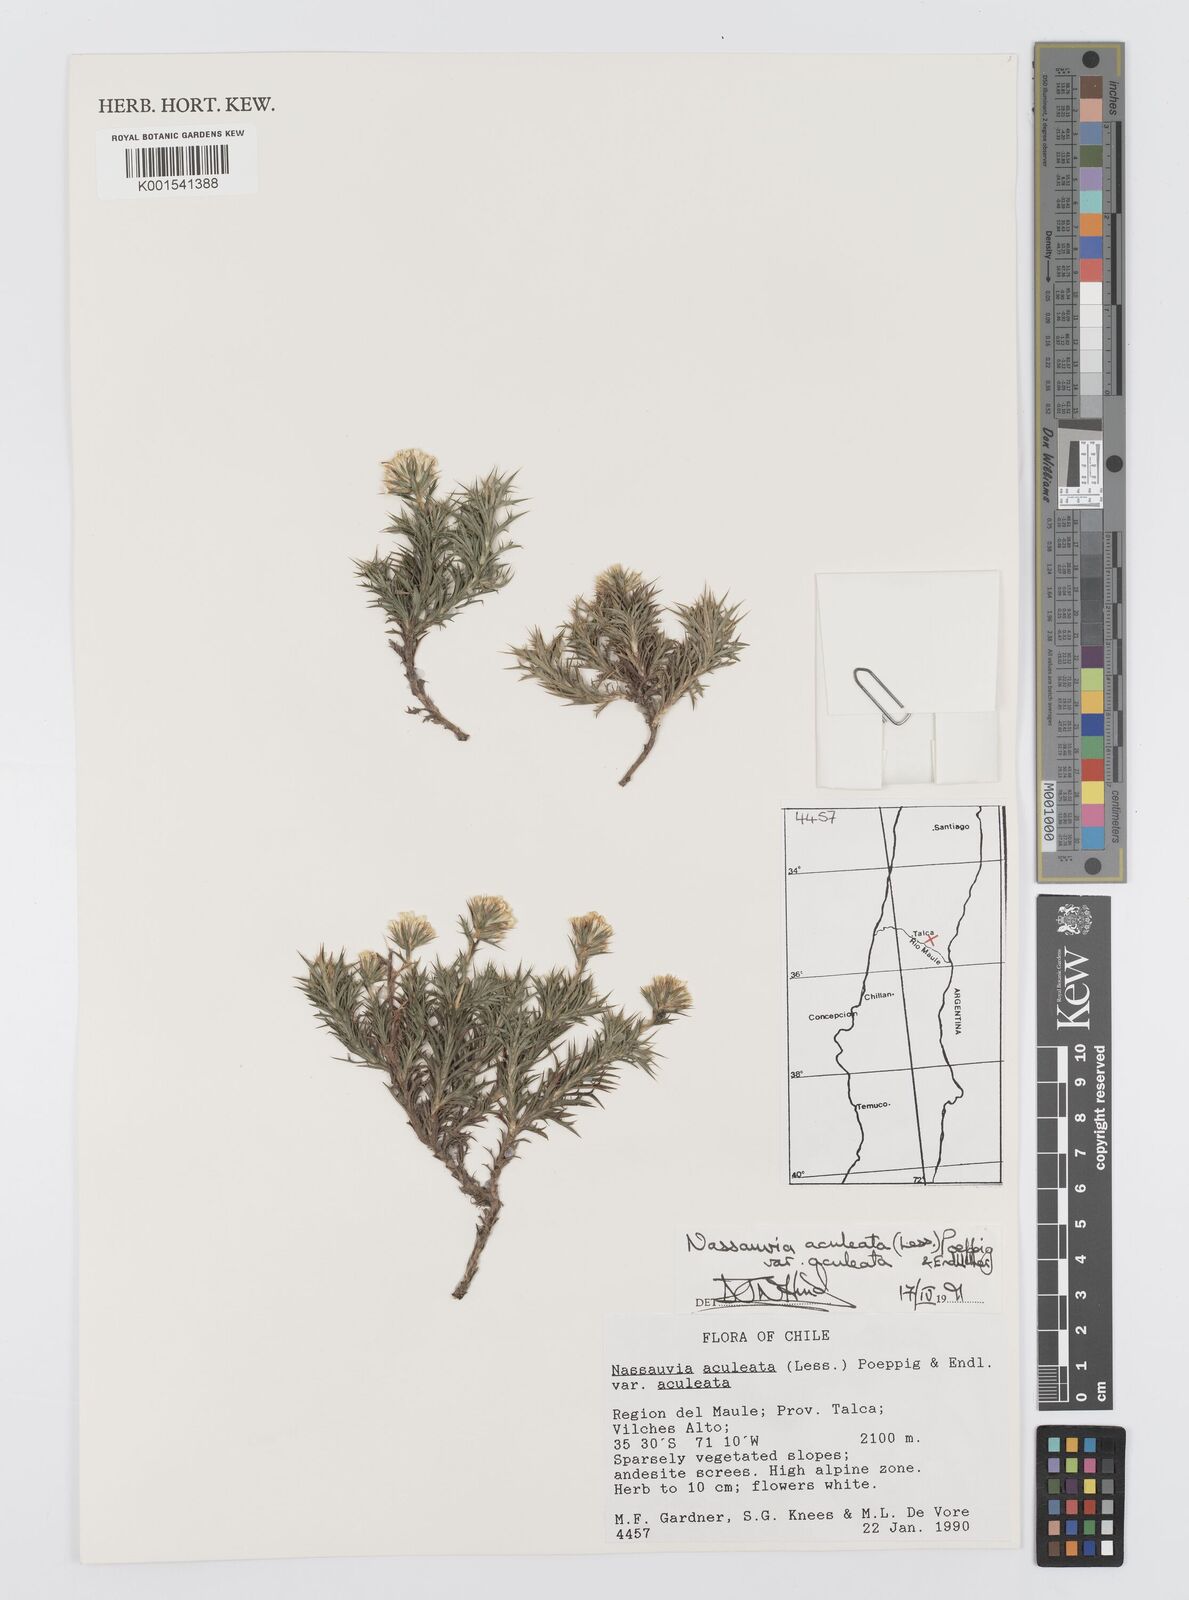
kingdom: Plantae
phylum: Tracheophyta
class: Magnoliopsida
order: Asterales
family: Asteraceae
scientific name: Asteraceae
